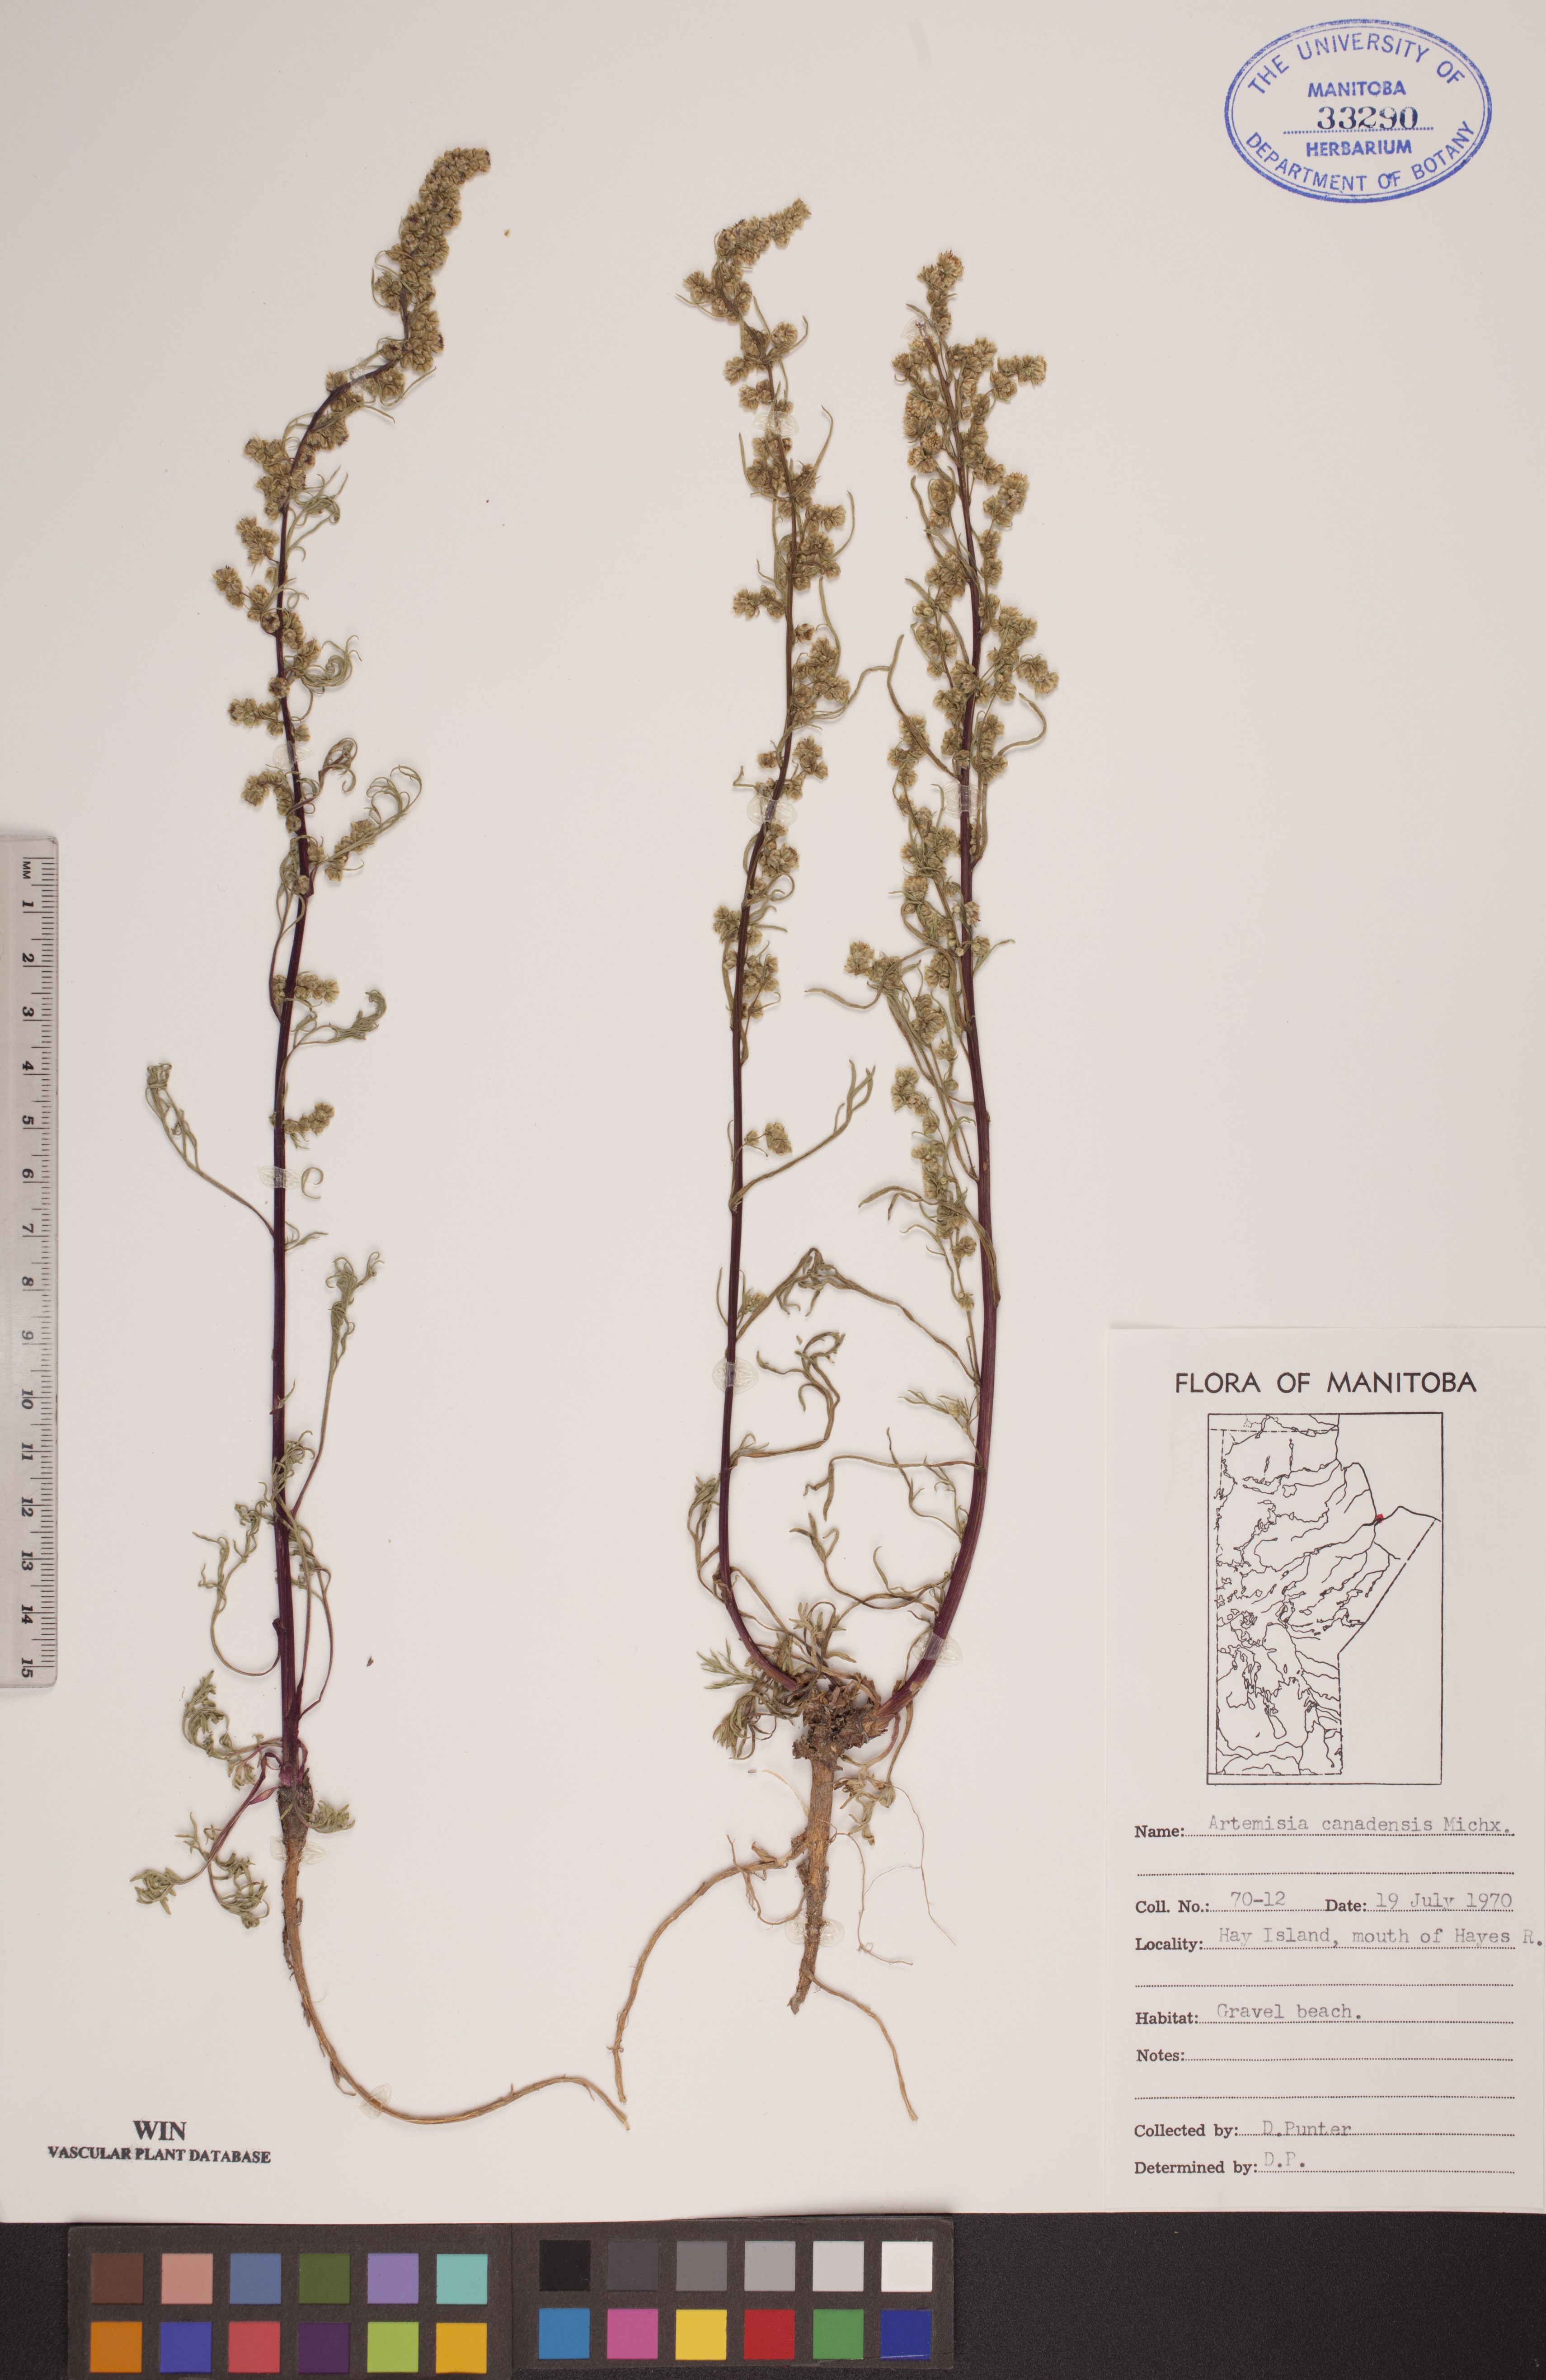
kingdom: Plantae
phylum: Tracheophyta
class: Magnoliopsida
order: Asterales
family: Asteraceae
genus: Artemisia
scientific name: Artemisia campestris
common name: Field wormwood
